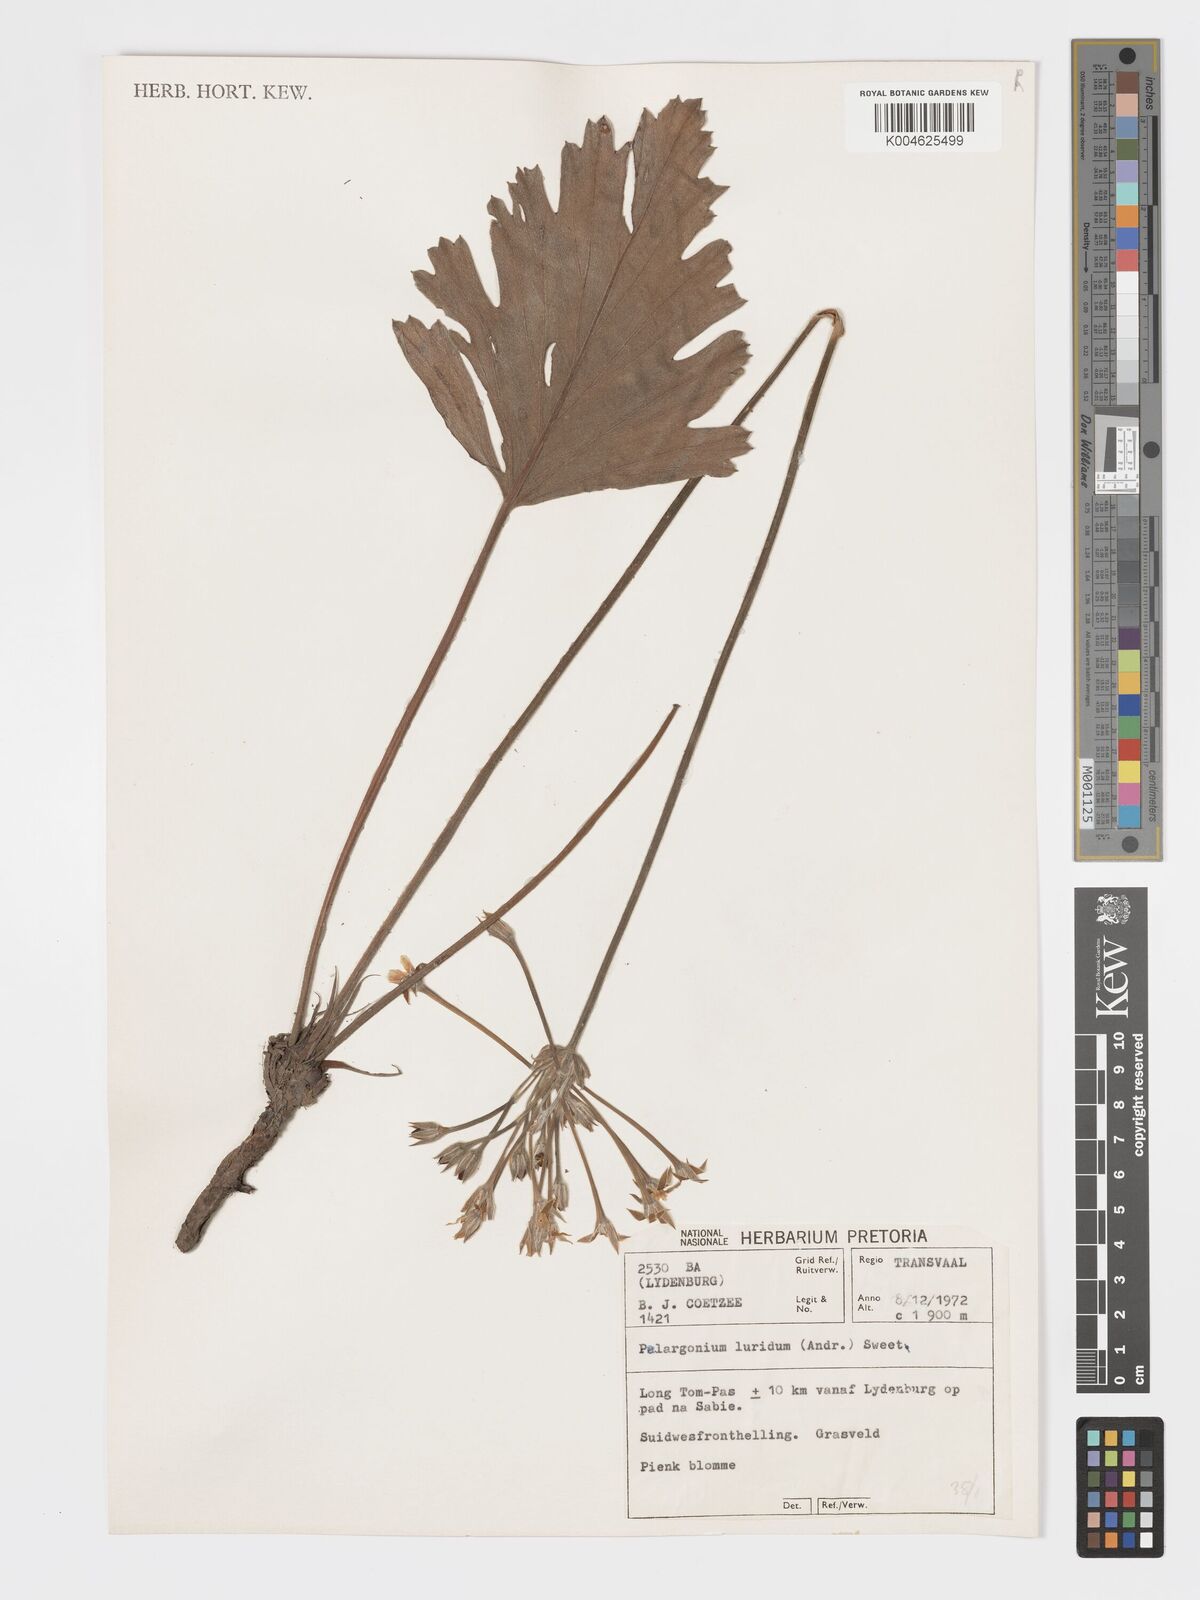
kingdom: Plantae
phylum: Tracheophyta
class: Magnoliopsida
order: Geraniales
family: Geraniaceae
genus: Pelargonium
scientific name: Pelargonium luridum
